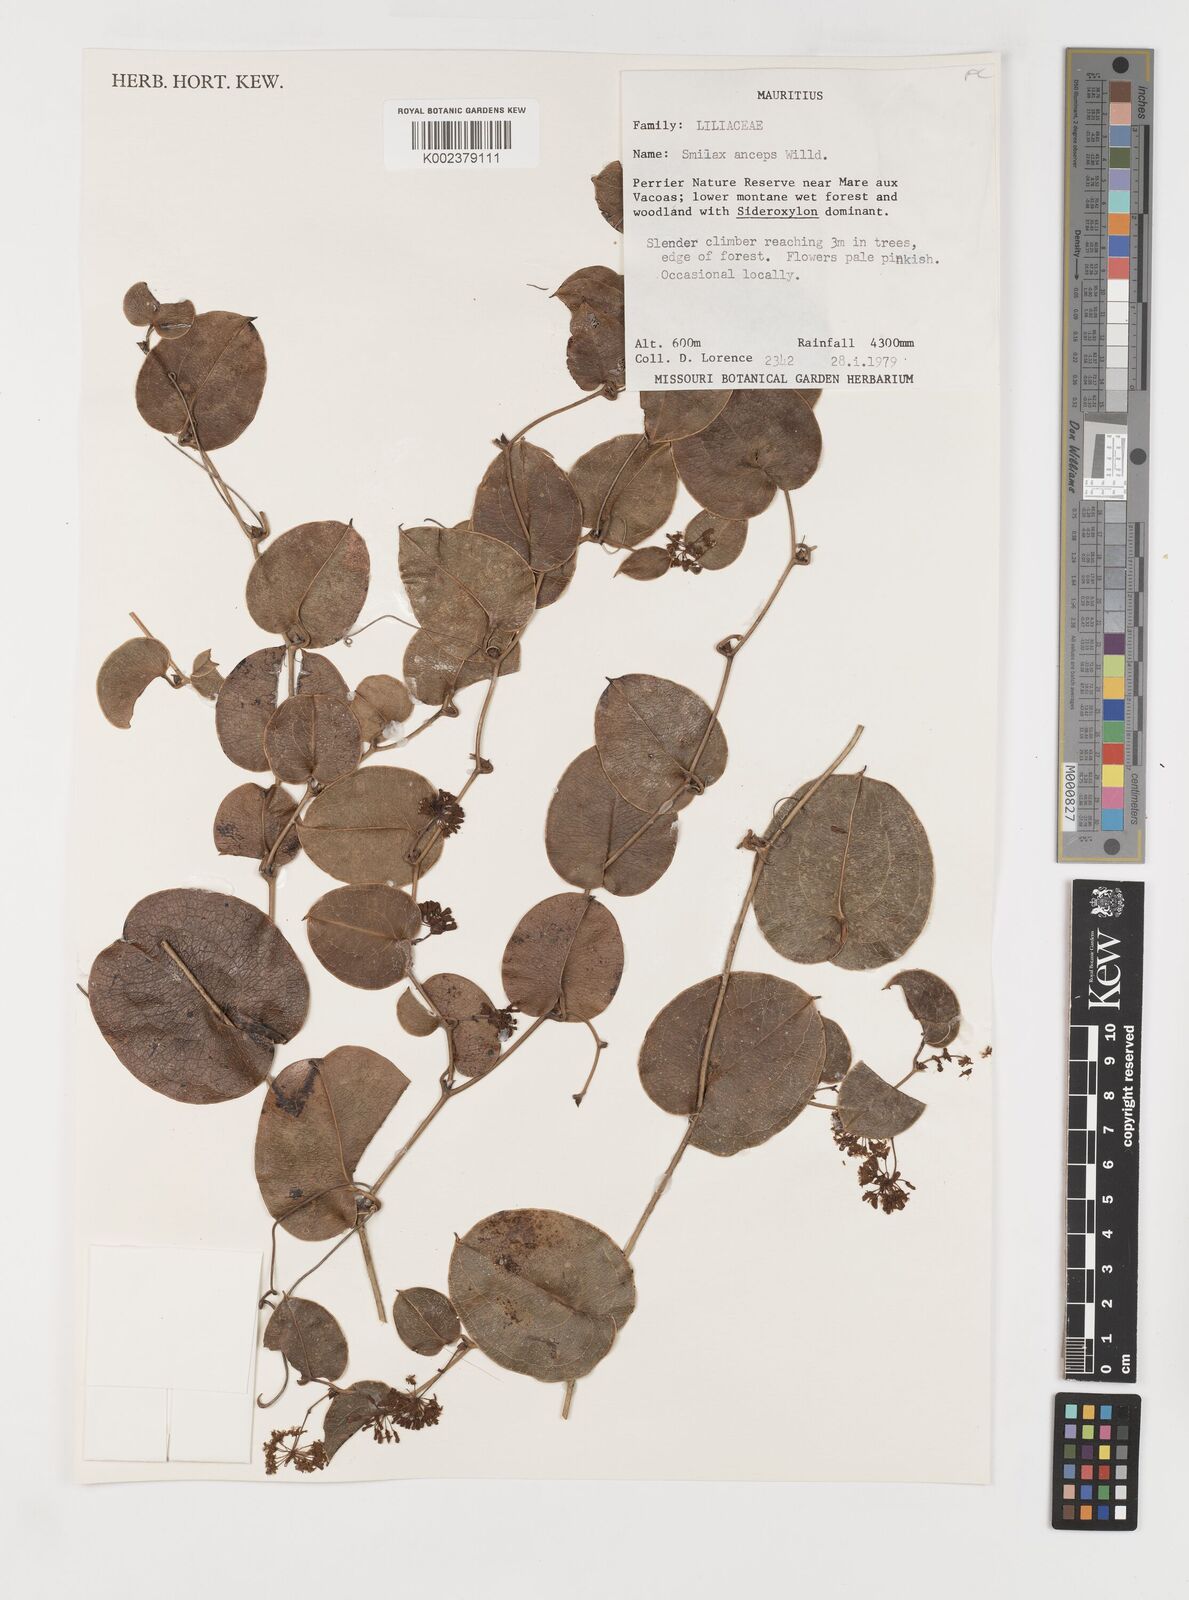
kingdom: Plantae
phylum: Tracheophyta
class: Liliopsida
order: Liliales
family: Smilacaceae
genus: Smilax
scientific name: Smilax anceps
